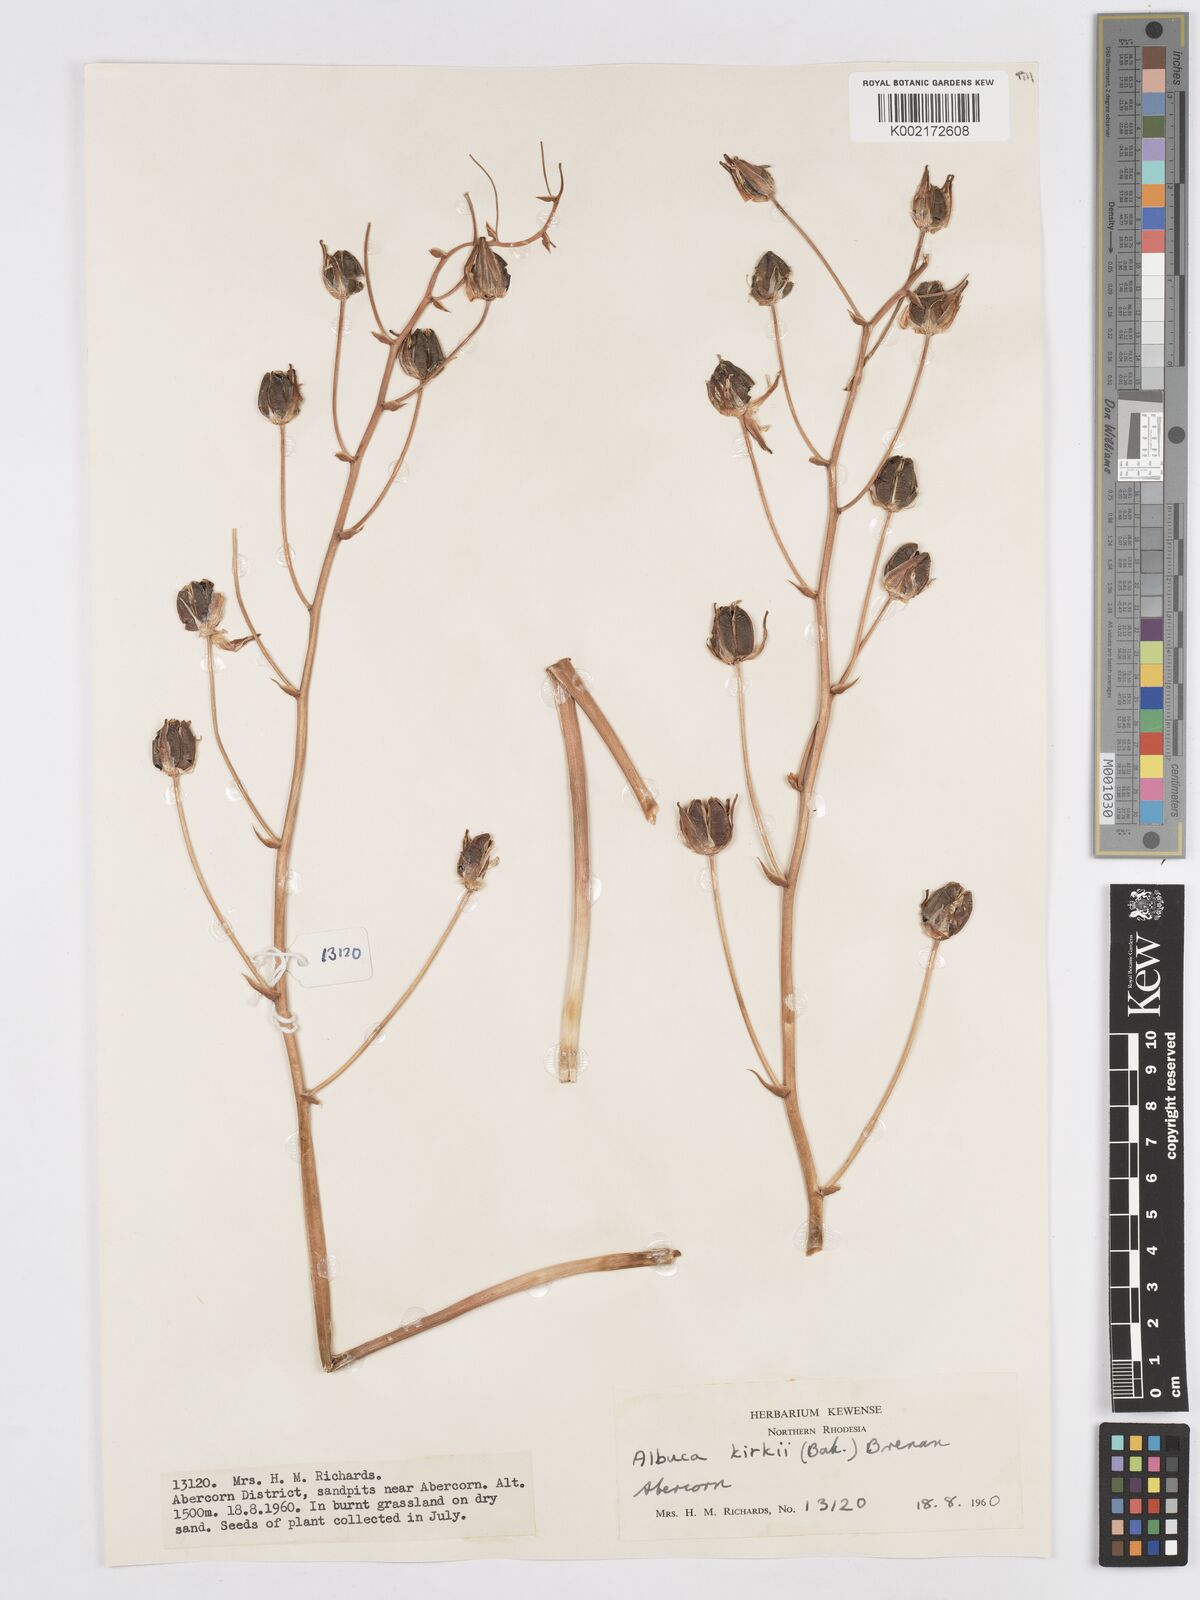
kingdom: Plantae
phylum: Tracheophyta
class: Liliopsida
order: Asparagales
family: Asparagaceae
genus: Albuca
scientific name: Albuca kirkii
